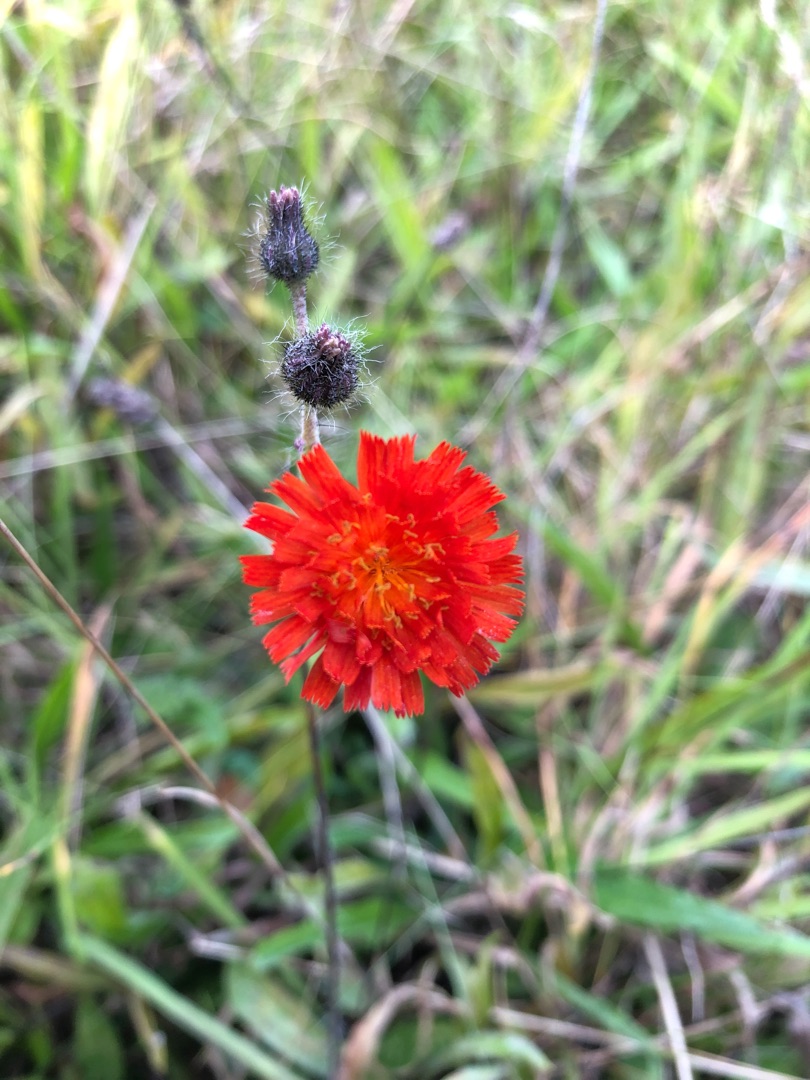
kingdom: Plantae
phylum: Tracheophyta
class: Magnoliopsida
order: Asterales
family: Asteraceae
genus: Pilosella
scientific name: Pilosella aurantiaca
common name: Pomerans-høgeurt
